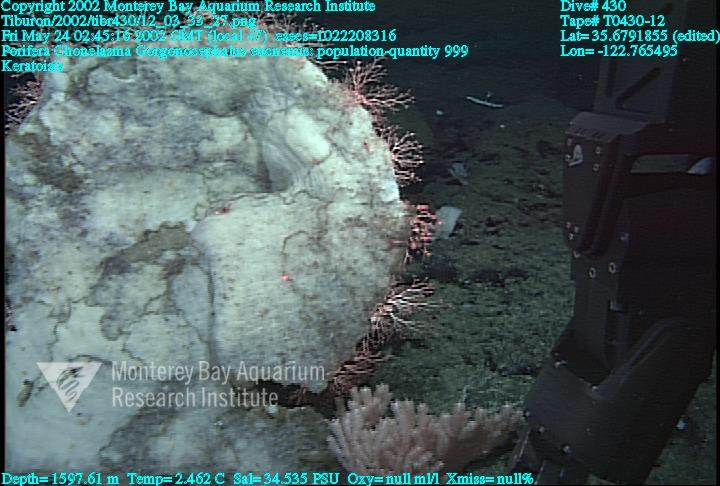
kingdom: Animalia
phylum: Porifera
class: Hexactinellida
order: Sceptrulophora
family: Euretidae
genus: Chonelasma
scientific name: Chonelasma
